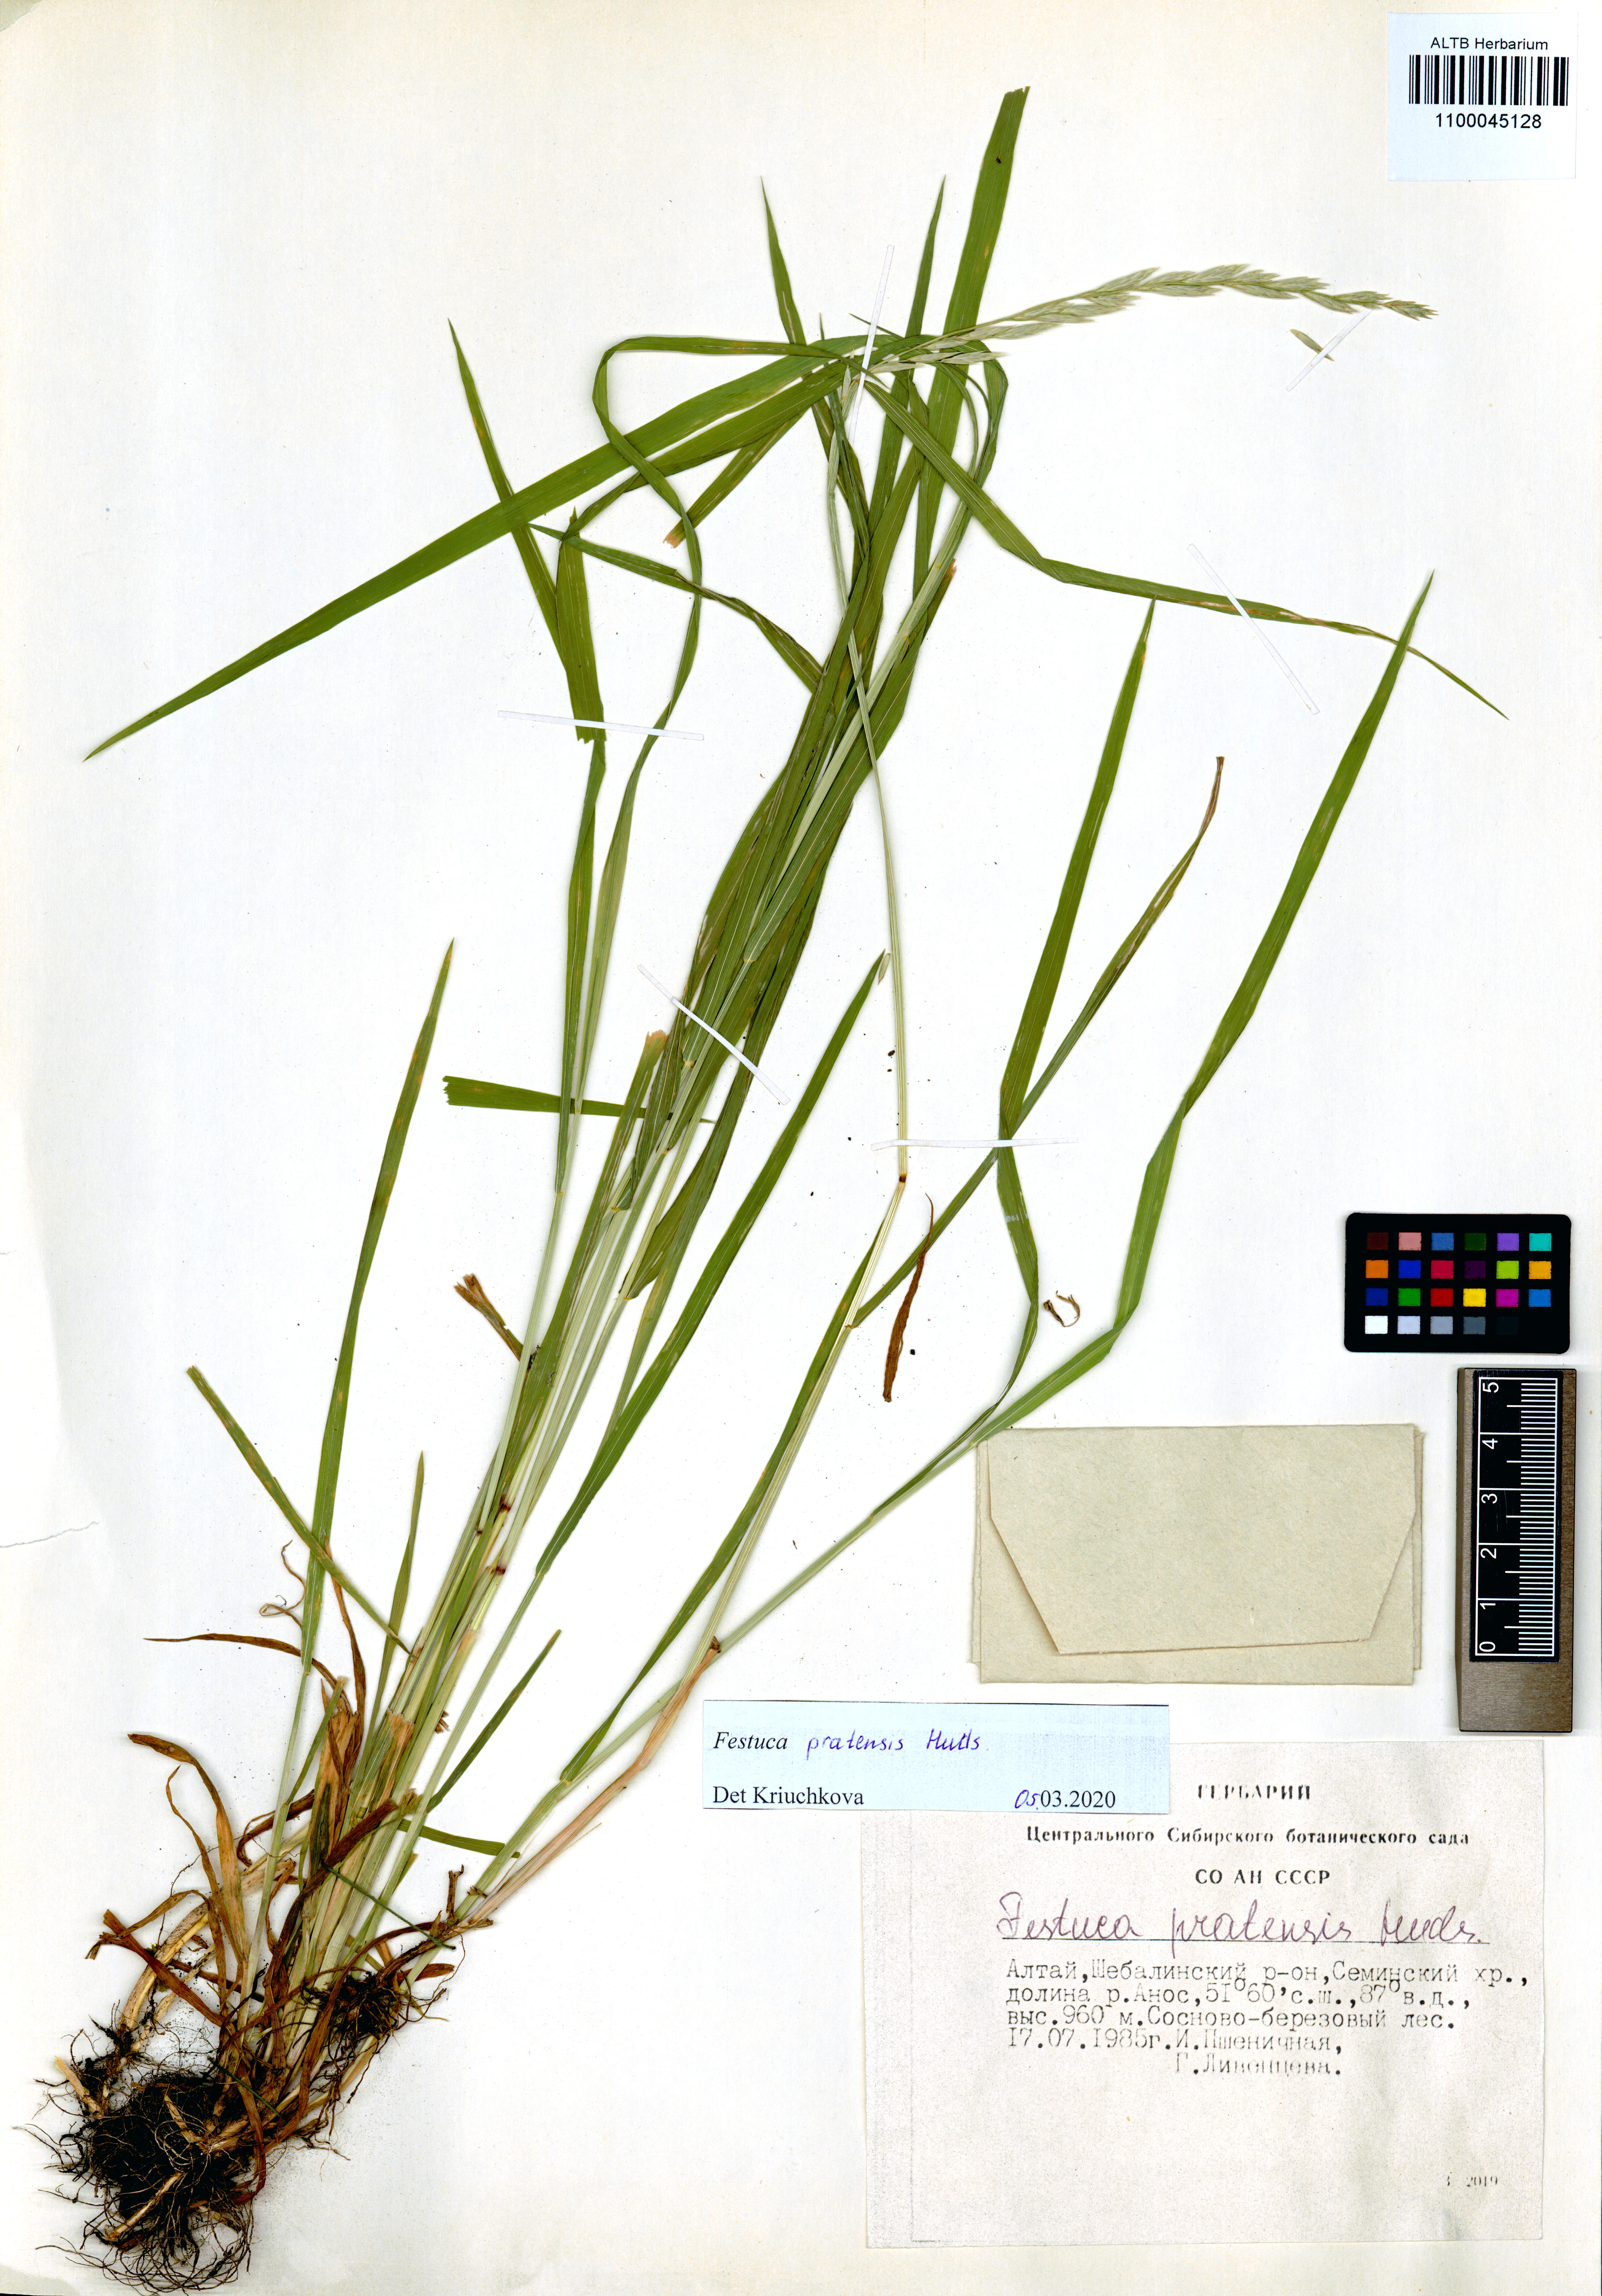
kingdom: Plantae
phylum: Tracheophyta
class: Liliopsida
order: Poales
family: Poaceae
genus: Lolium
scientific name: Lolium pratense
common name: Dover grass
